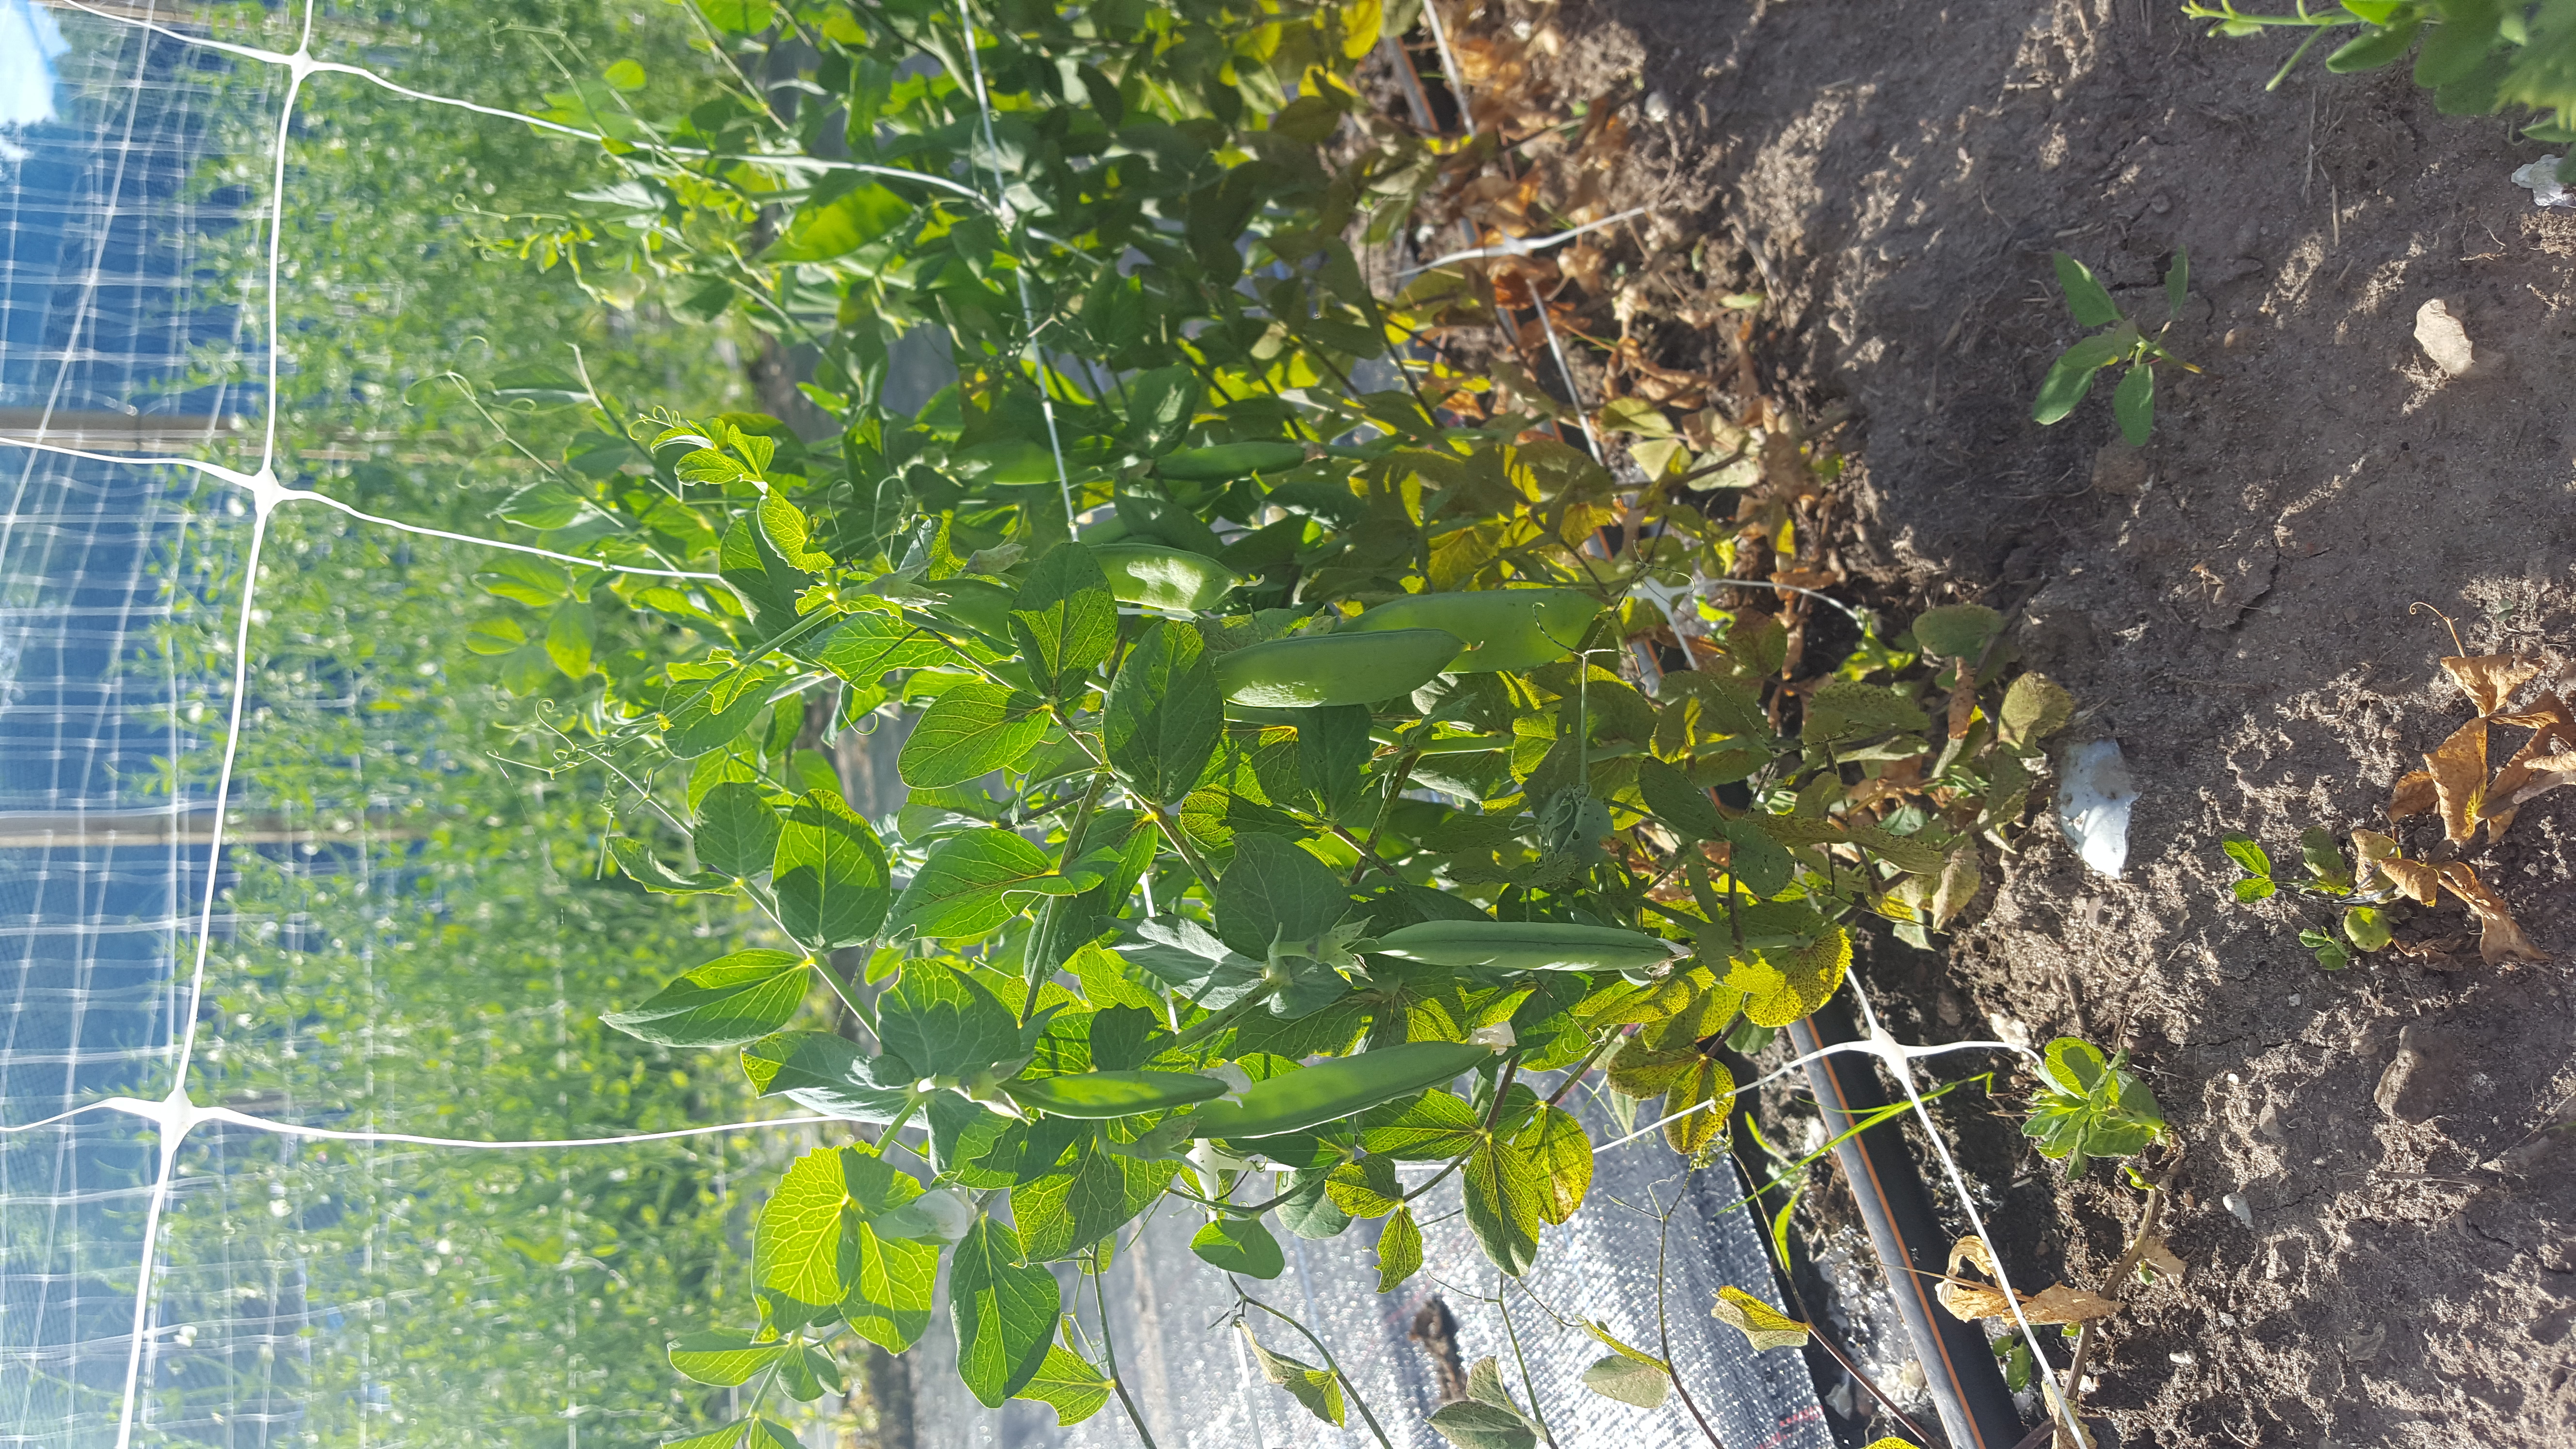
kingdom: Plantae
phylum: Tracheophyta
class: Magnoliopsida
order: Fabales
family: Fabaceae
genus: Lathyrus
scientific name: Lathyrus oleraceus
